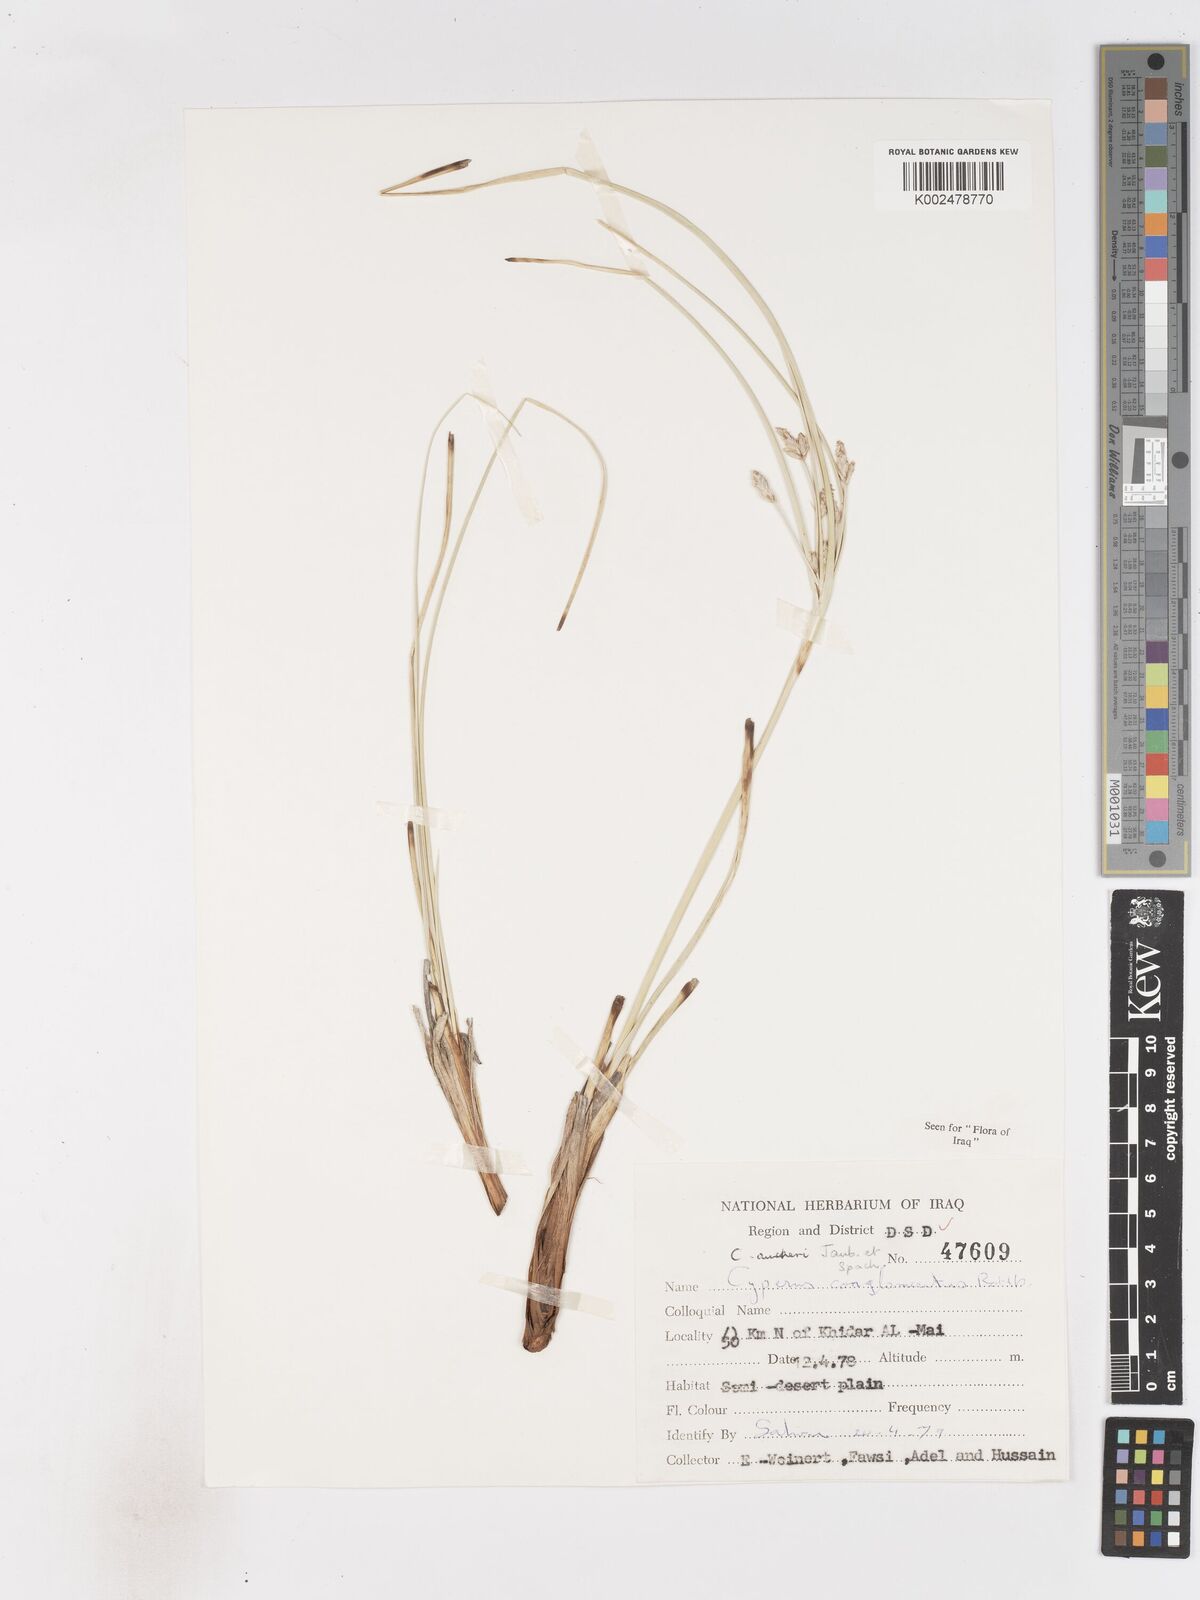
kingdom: Plantae
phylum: Tracheophyta
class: Liliopsida
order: Poales
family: Cyperaceae
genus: Cyperus
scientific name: Cyperus aucheri
